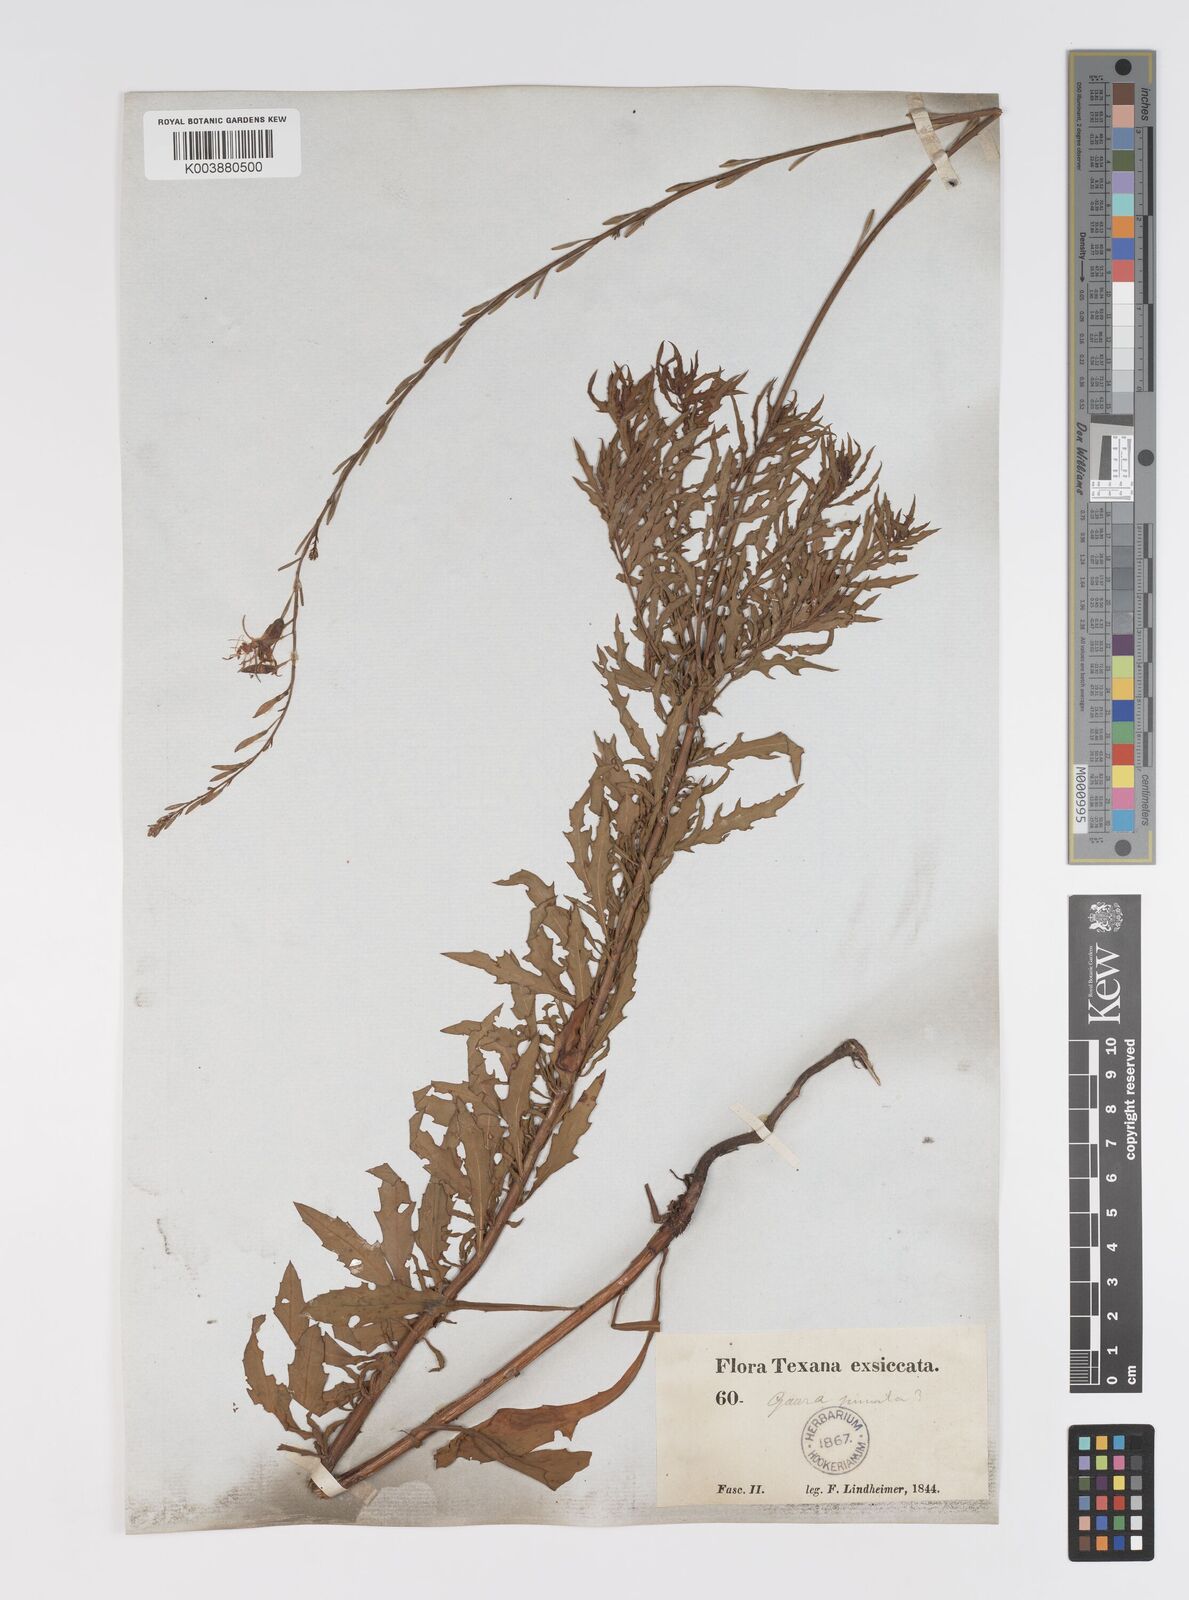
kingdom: Plantae
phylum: Tracheophyta
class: Magnoliopsida
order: Myrtales
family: Onagraceae
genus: Oenothera
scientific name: Oenothera sinuosa
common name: Wavyleaf beeblossom
